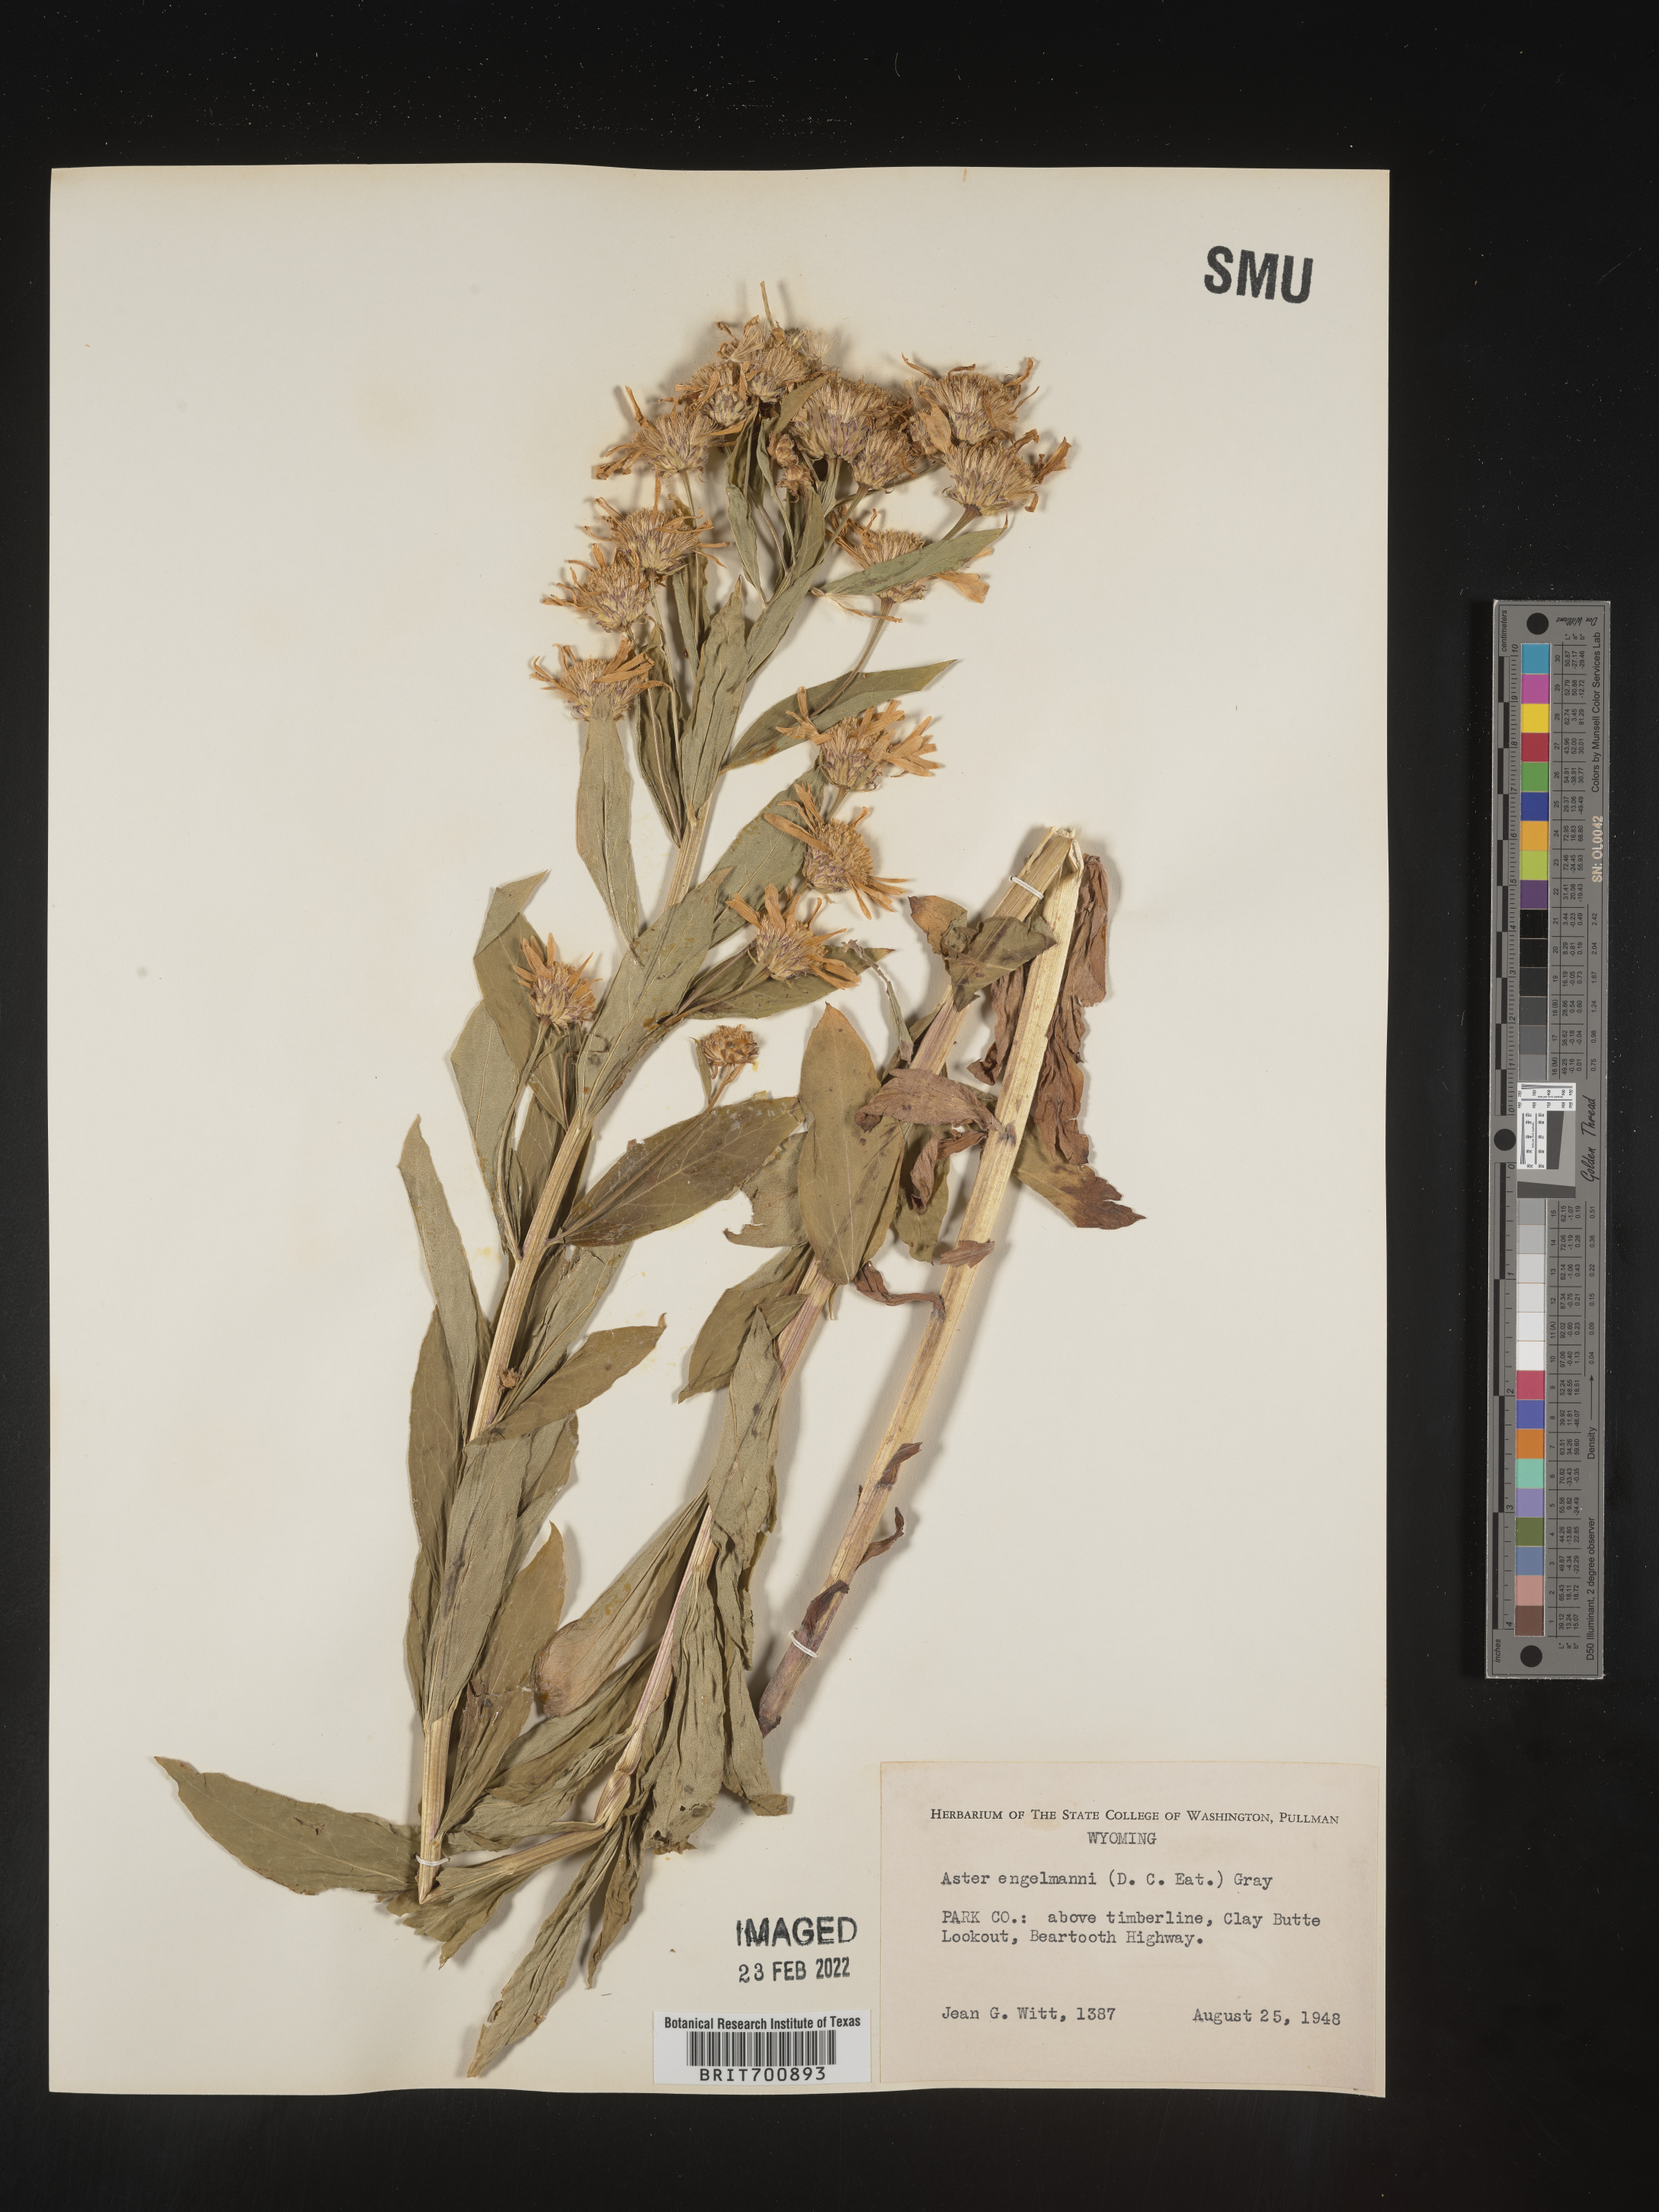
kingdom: Plantae
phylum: Tracheophyta
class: Magnoliopsida
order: Asterales
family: Asteraceae
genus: Eucephalus
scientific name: Eucephalus engelmannii
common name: Engelmann's aster
